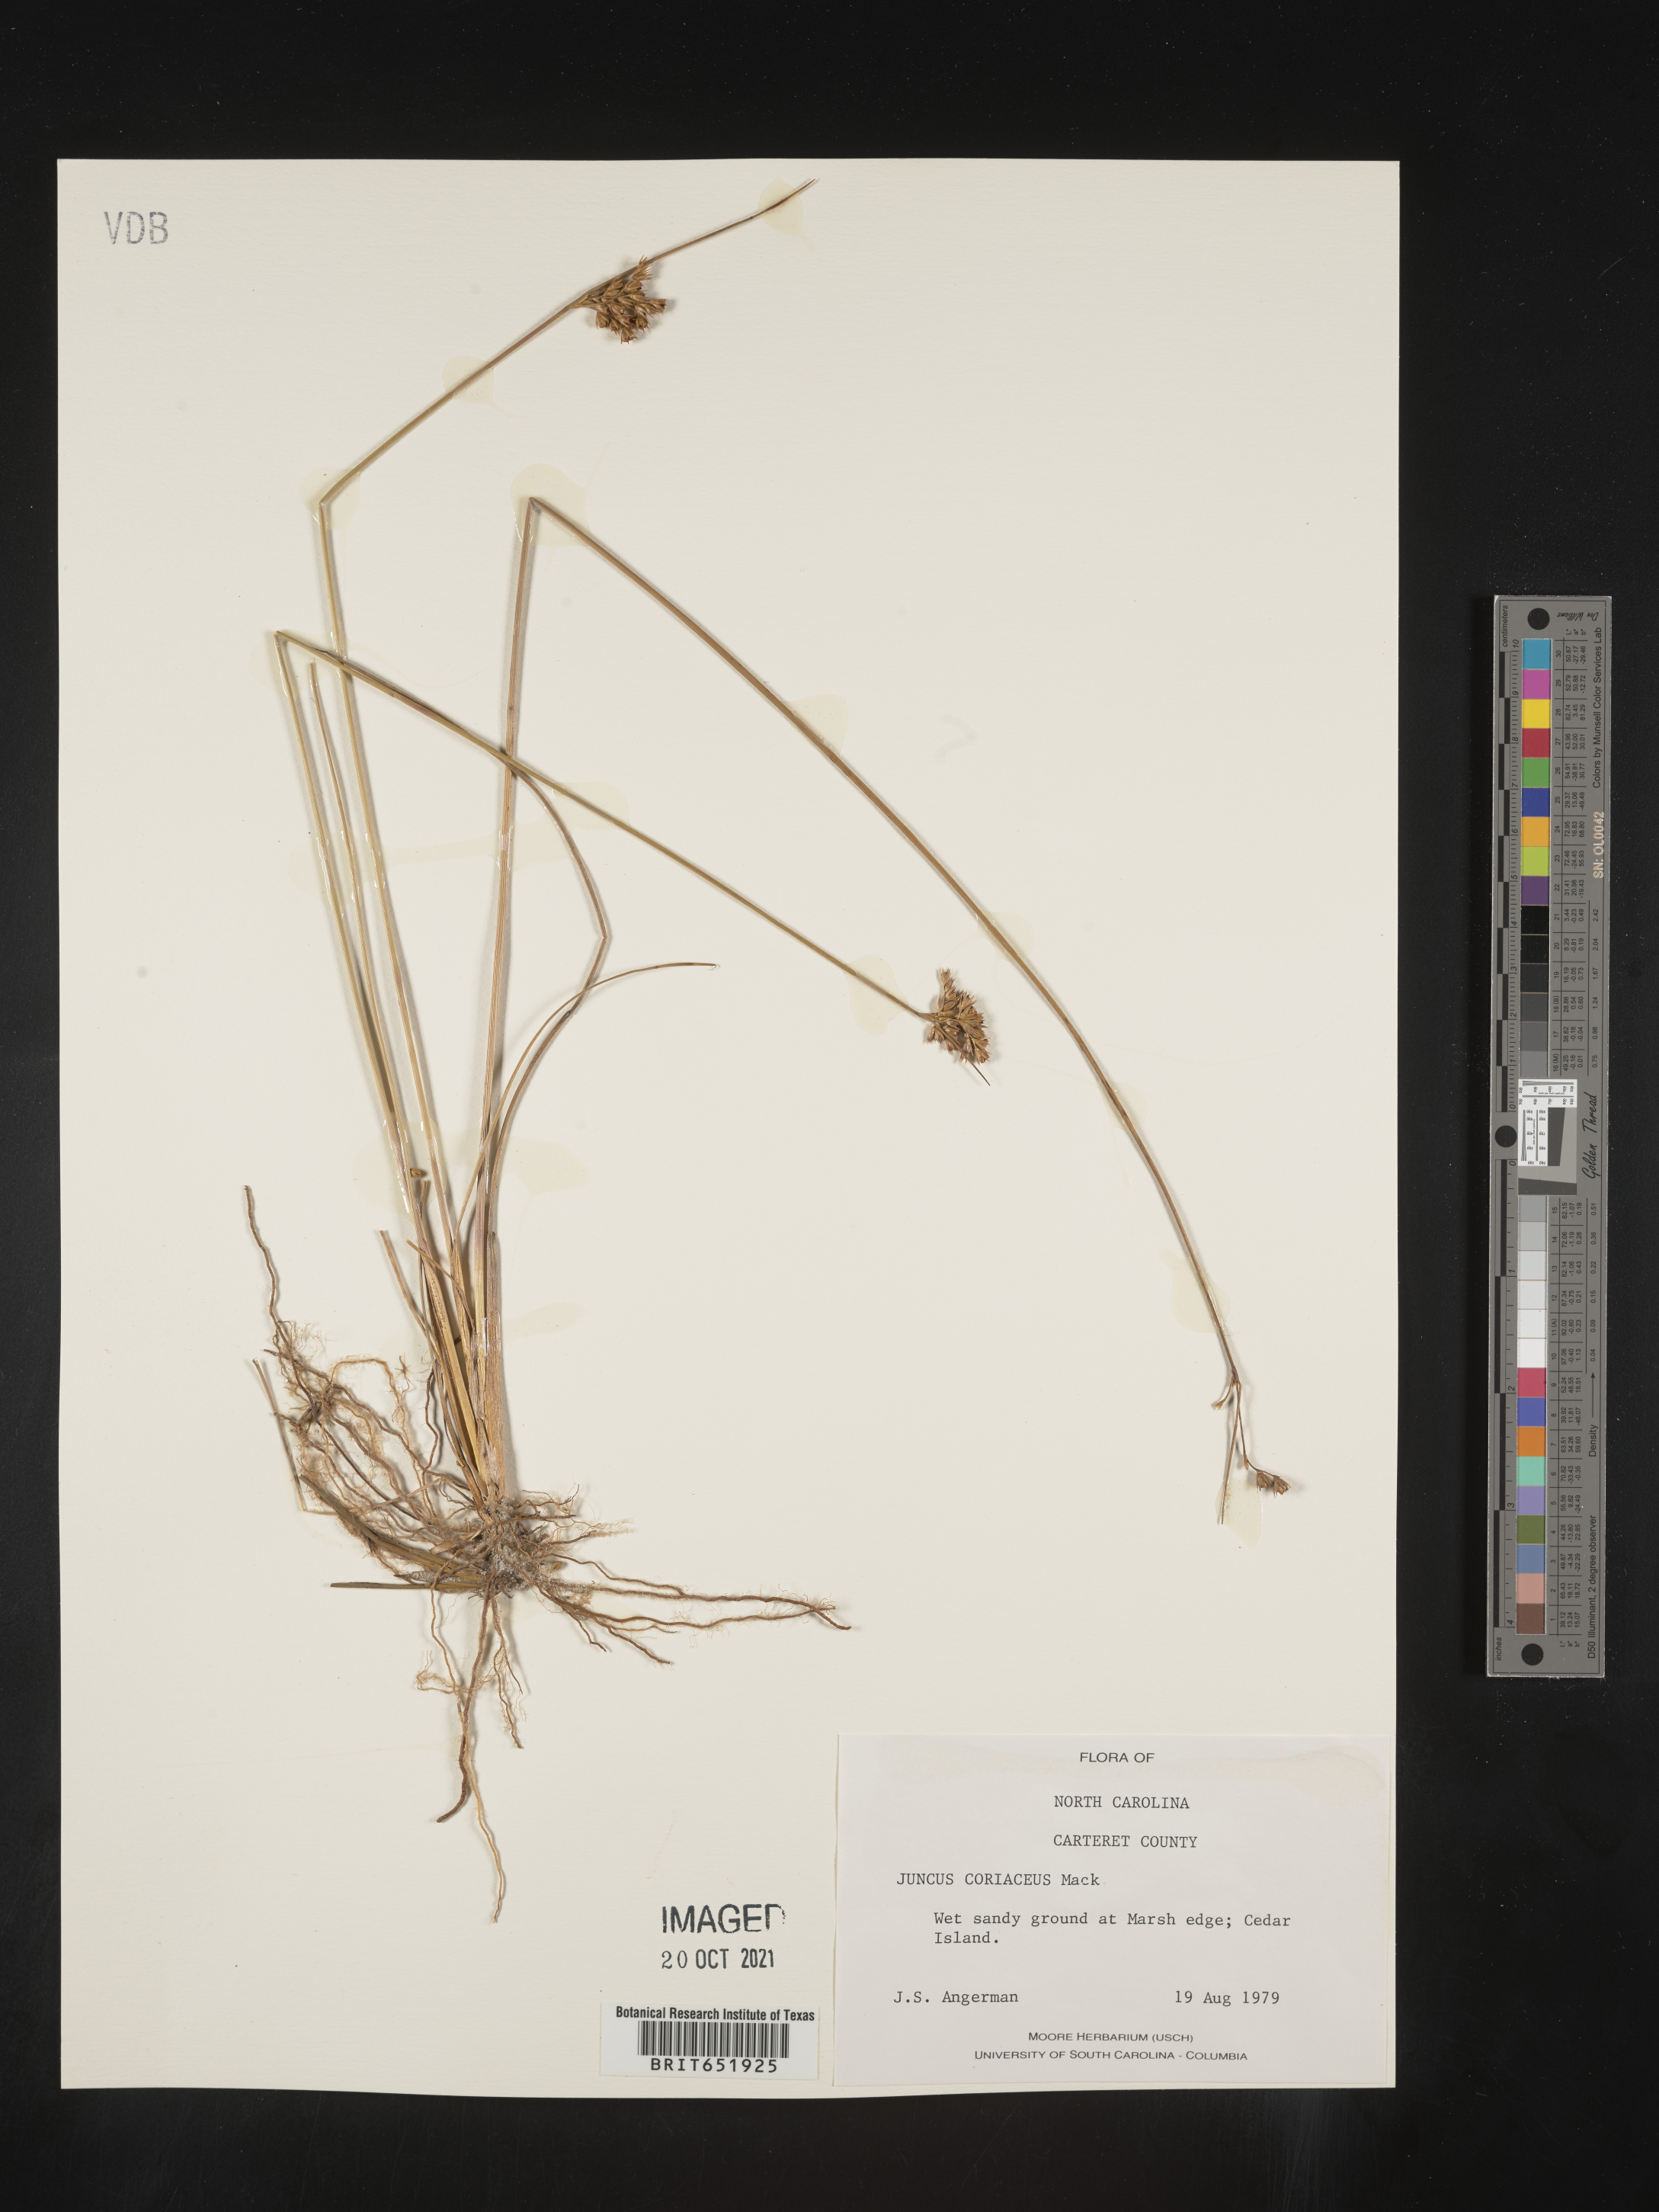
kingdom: Plantae
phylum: Tracheophyta
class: Liliopsida
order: Poales
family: Juncaceae
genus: Juncus
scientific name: Juncus coriaceus
